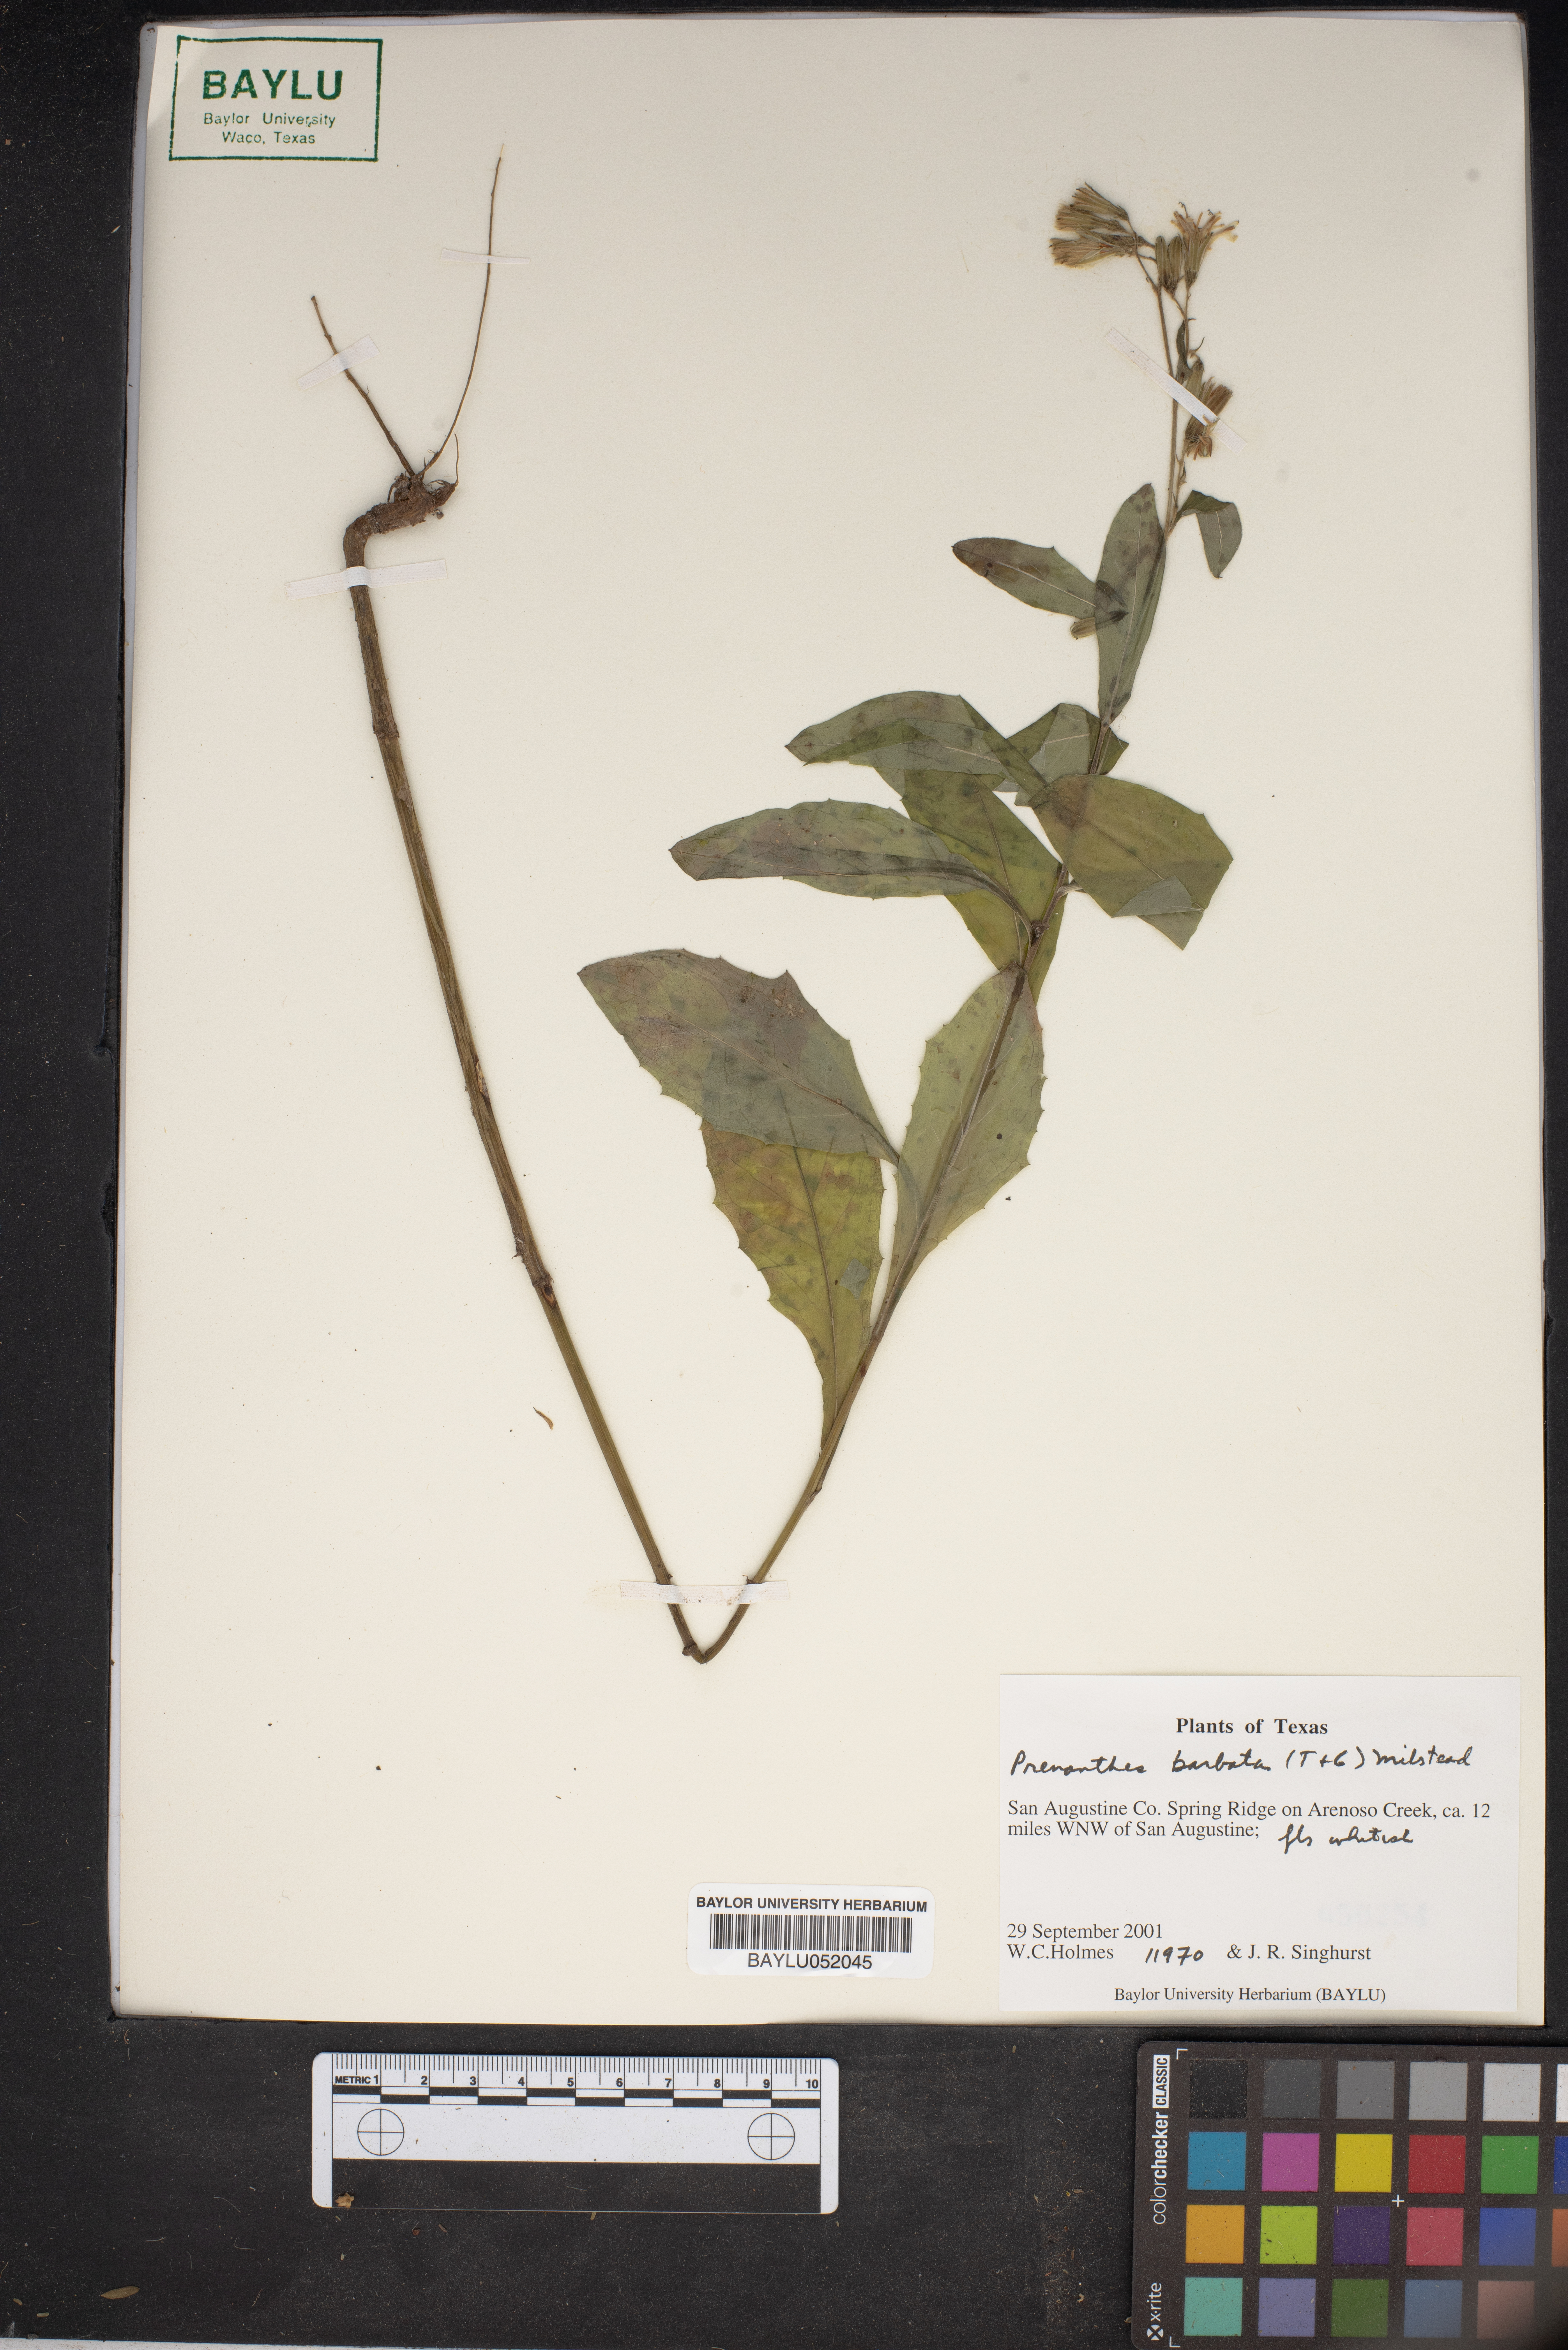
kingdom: Plantae
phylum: Tracheophyta
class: Magnoliopsida
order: Asterales
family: Asteraceae
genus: Nabalus
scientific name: Nabalus barbata
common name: Barbed rattlesnakeroot
